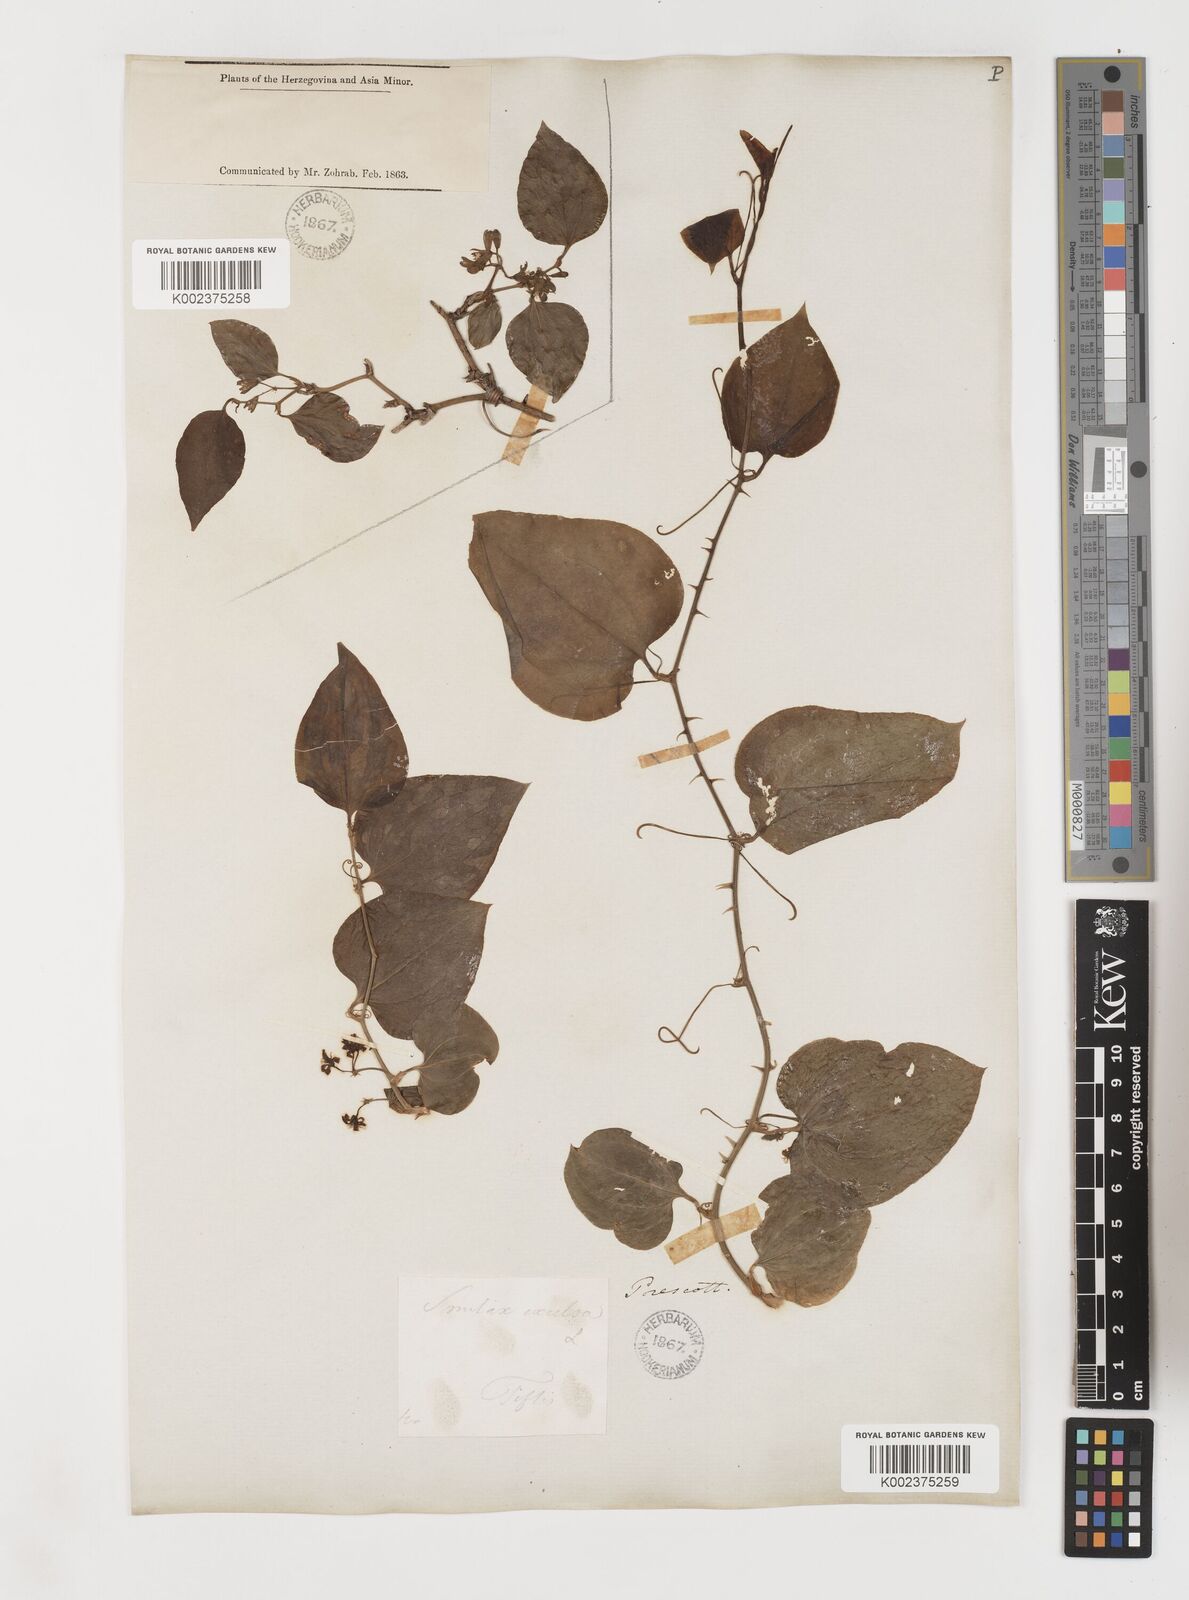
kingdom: Plantae
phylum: Tracheophyta
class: Liliopsida
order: Liliales
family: Smilacaceae
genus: Smilax
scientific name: Smilax excelsa
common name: Larger smilax
